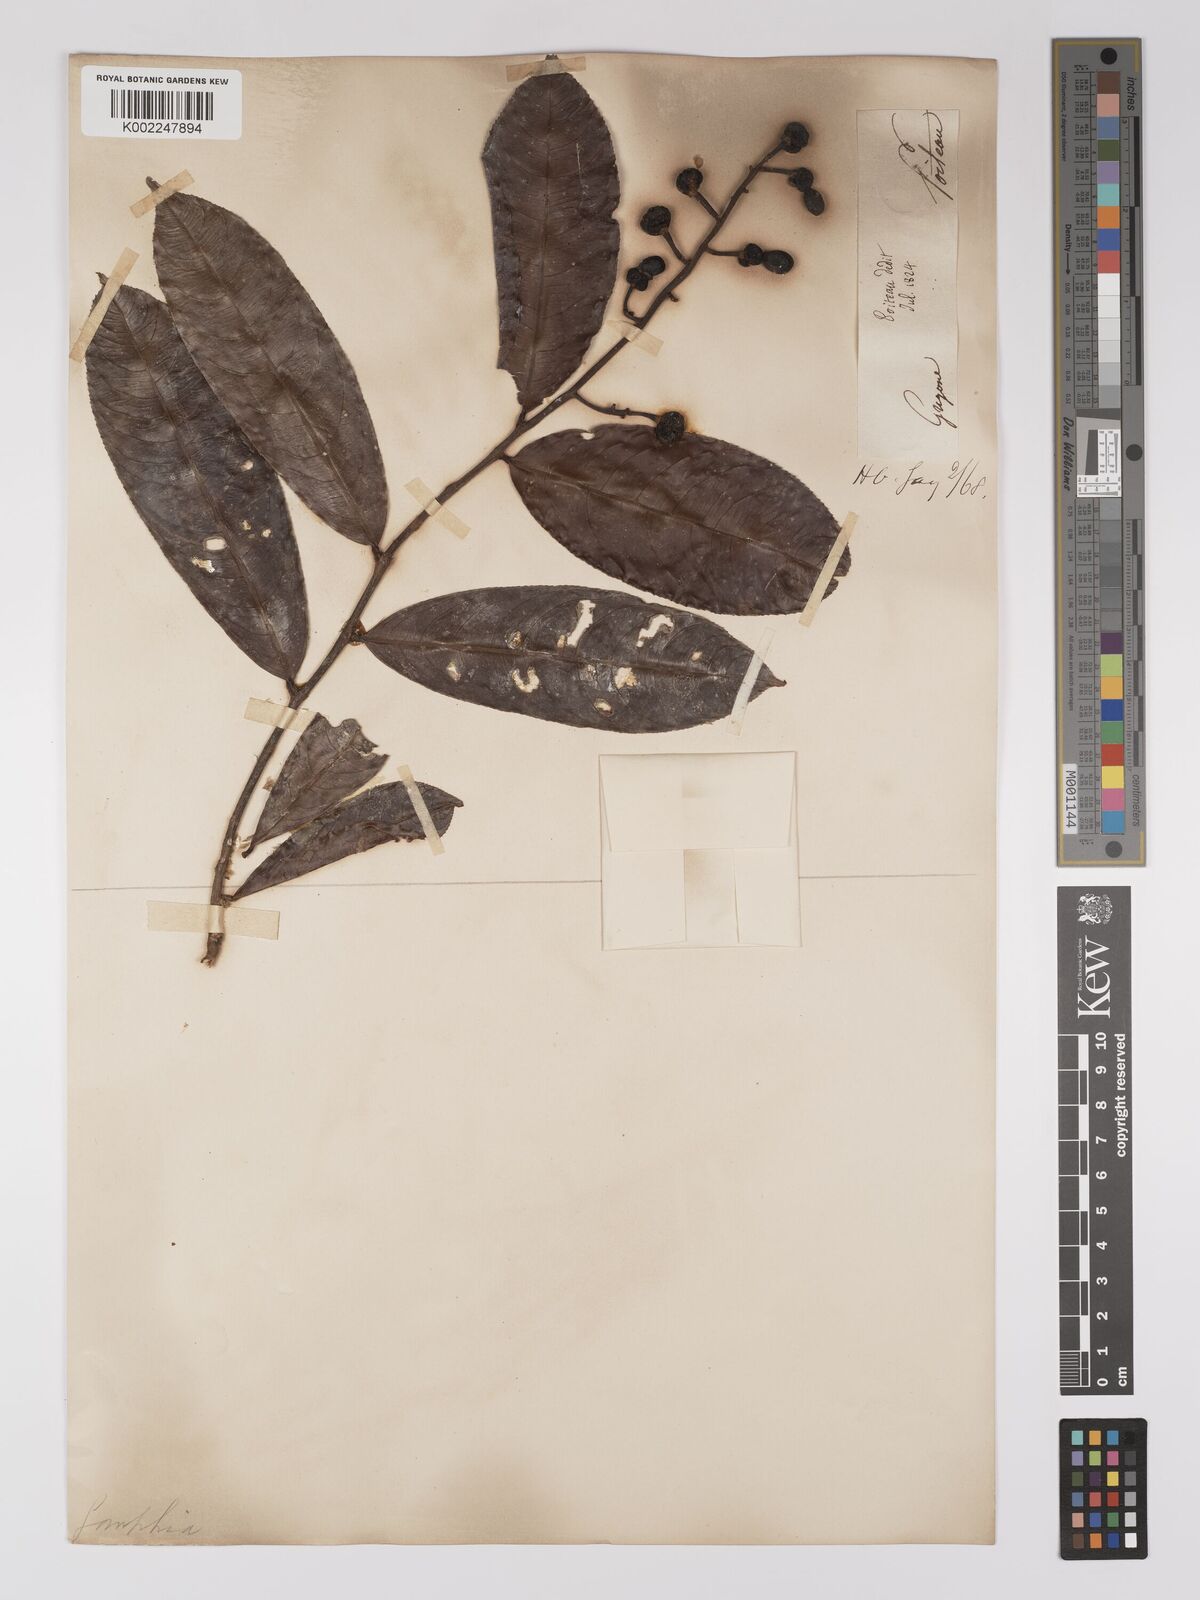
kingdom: Plantae
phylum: Tracheophyta
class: Magnoliopsida
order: Malpighiales
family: Ochnaceae
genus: Ouratea
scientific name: Ouratea
